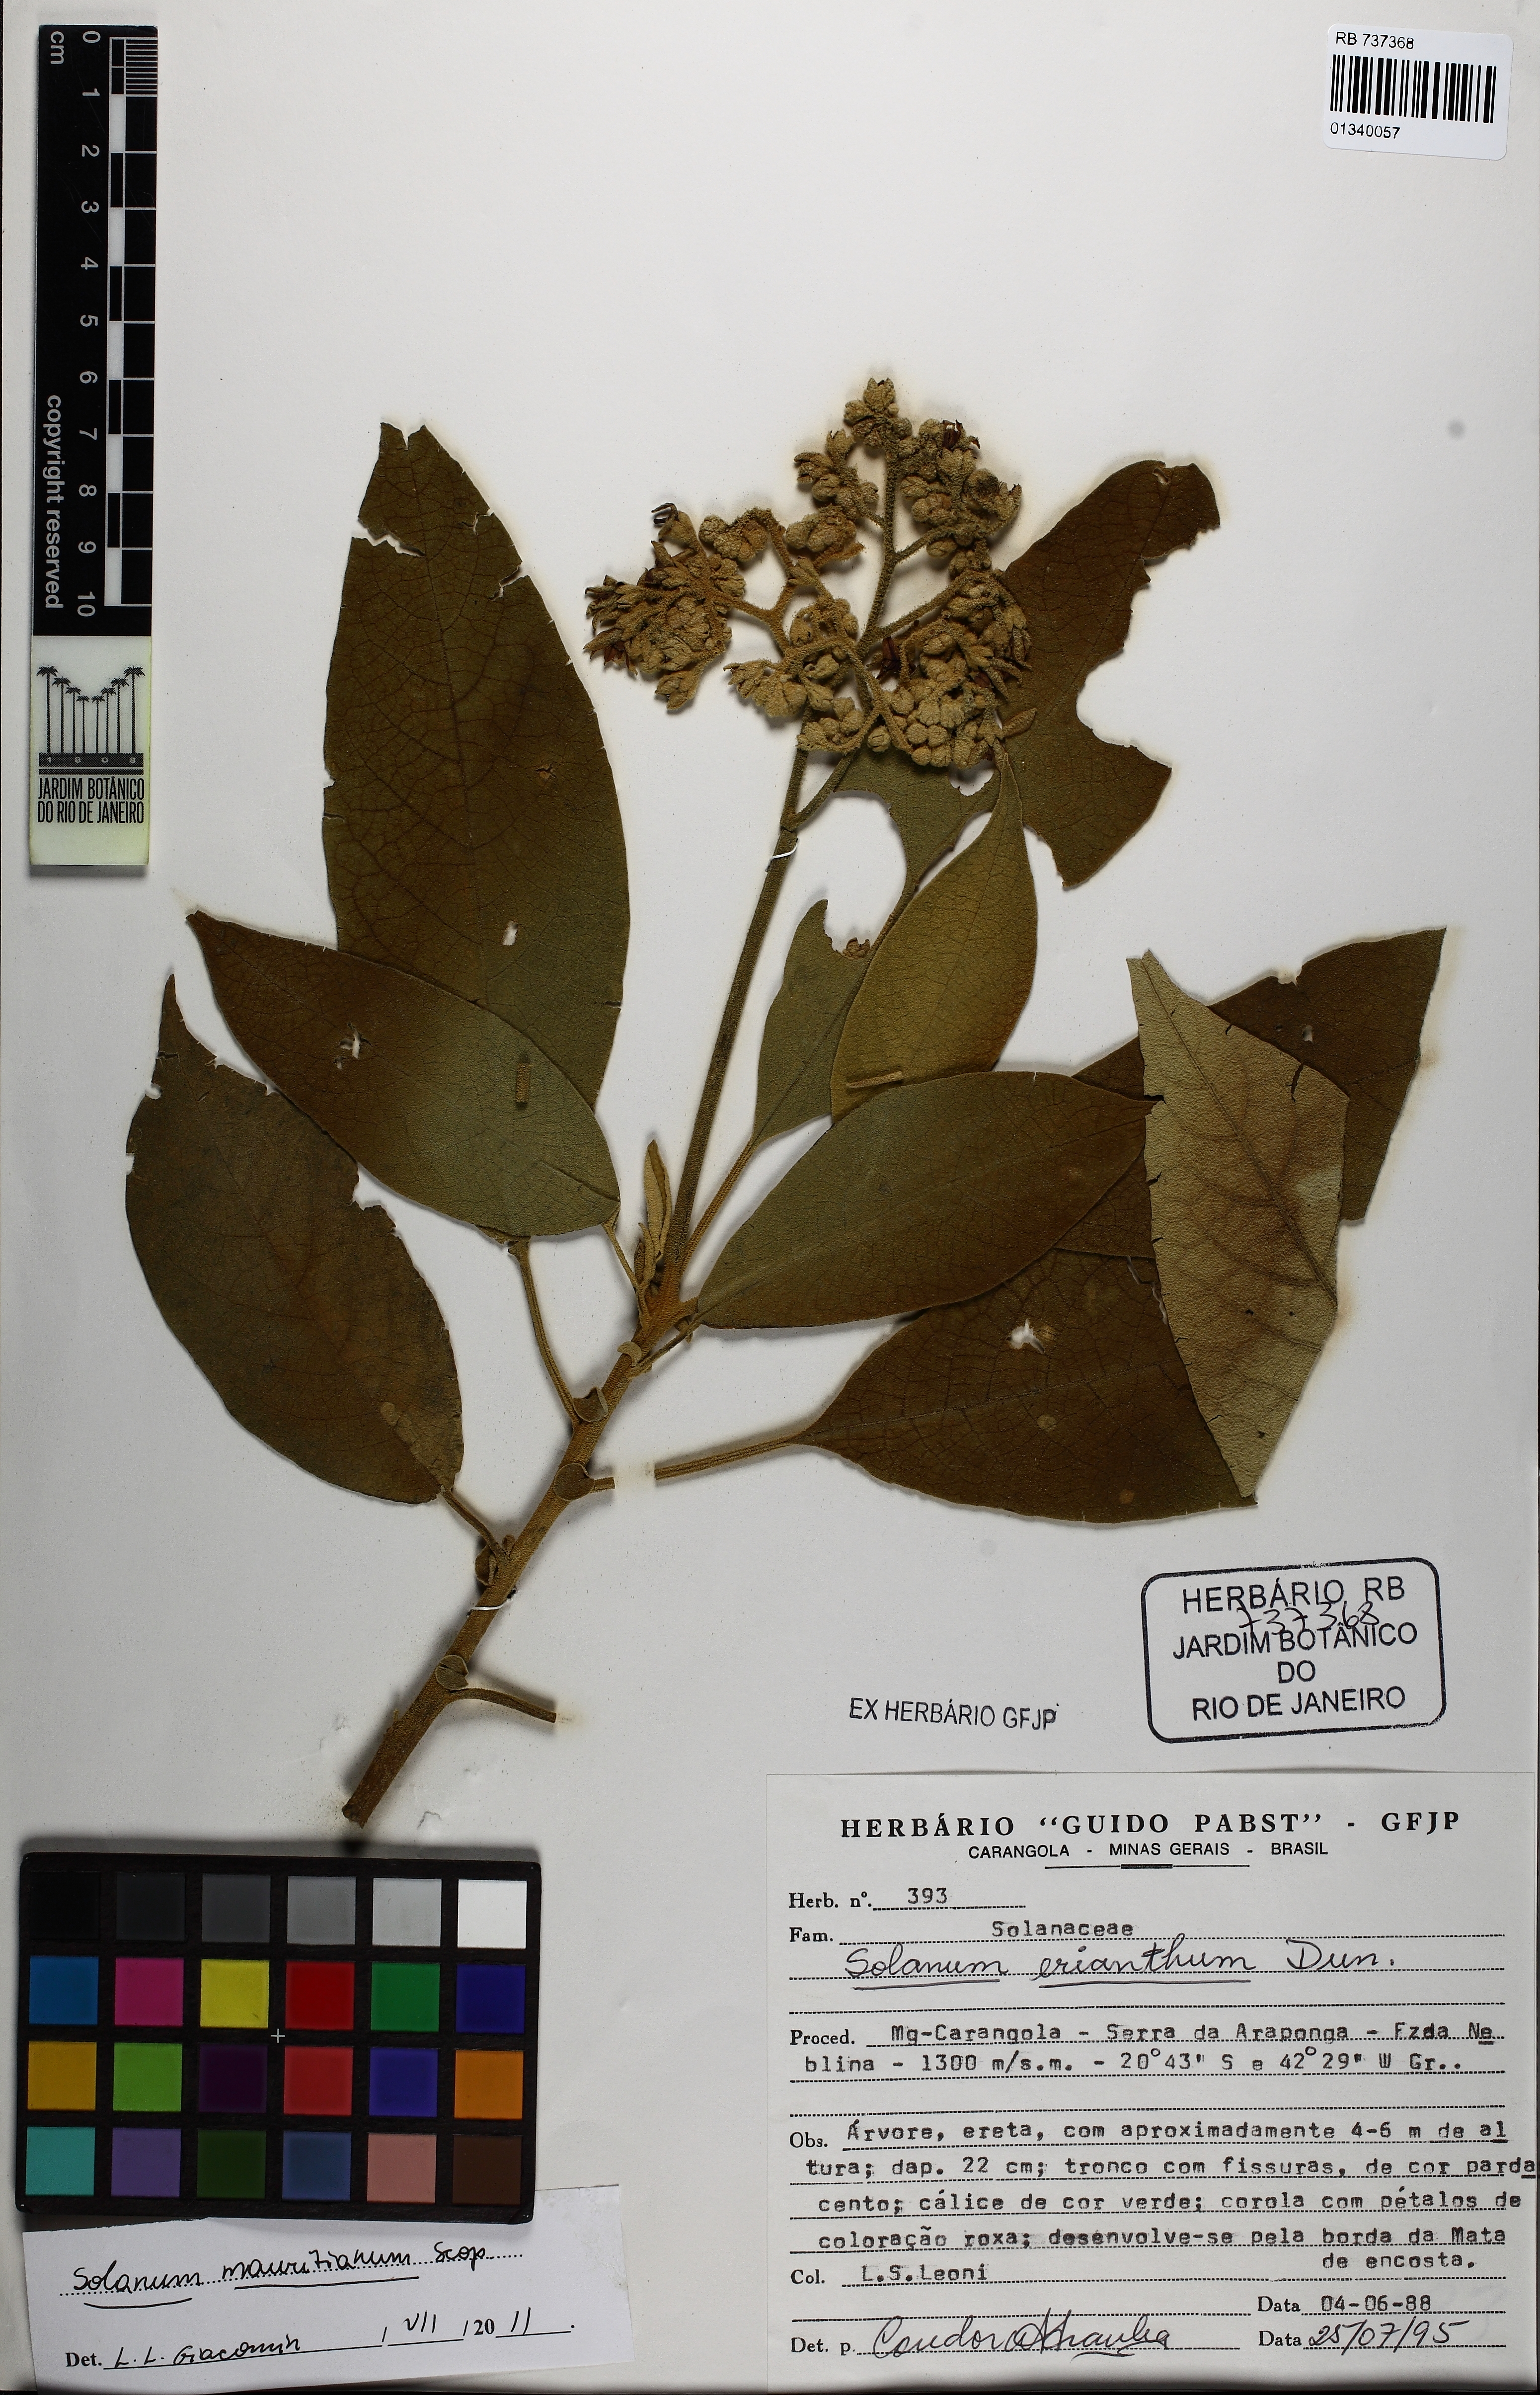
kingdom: Plantae
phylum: Tracheophyta
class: Magnoliopsida
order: Solanales
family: Solanaceae
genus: Solanum
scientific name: Solanum mauritianum
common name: Earleaf nightshade
